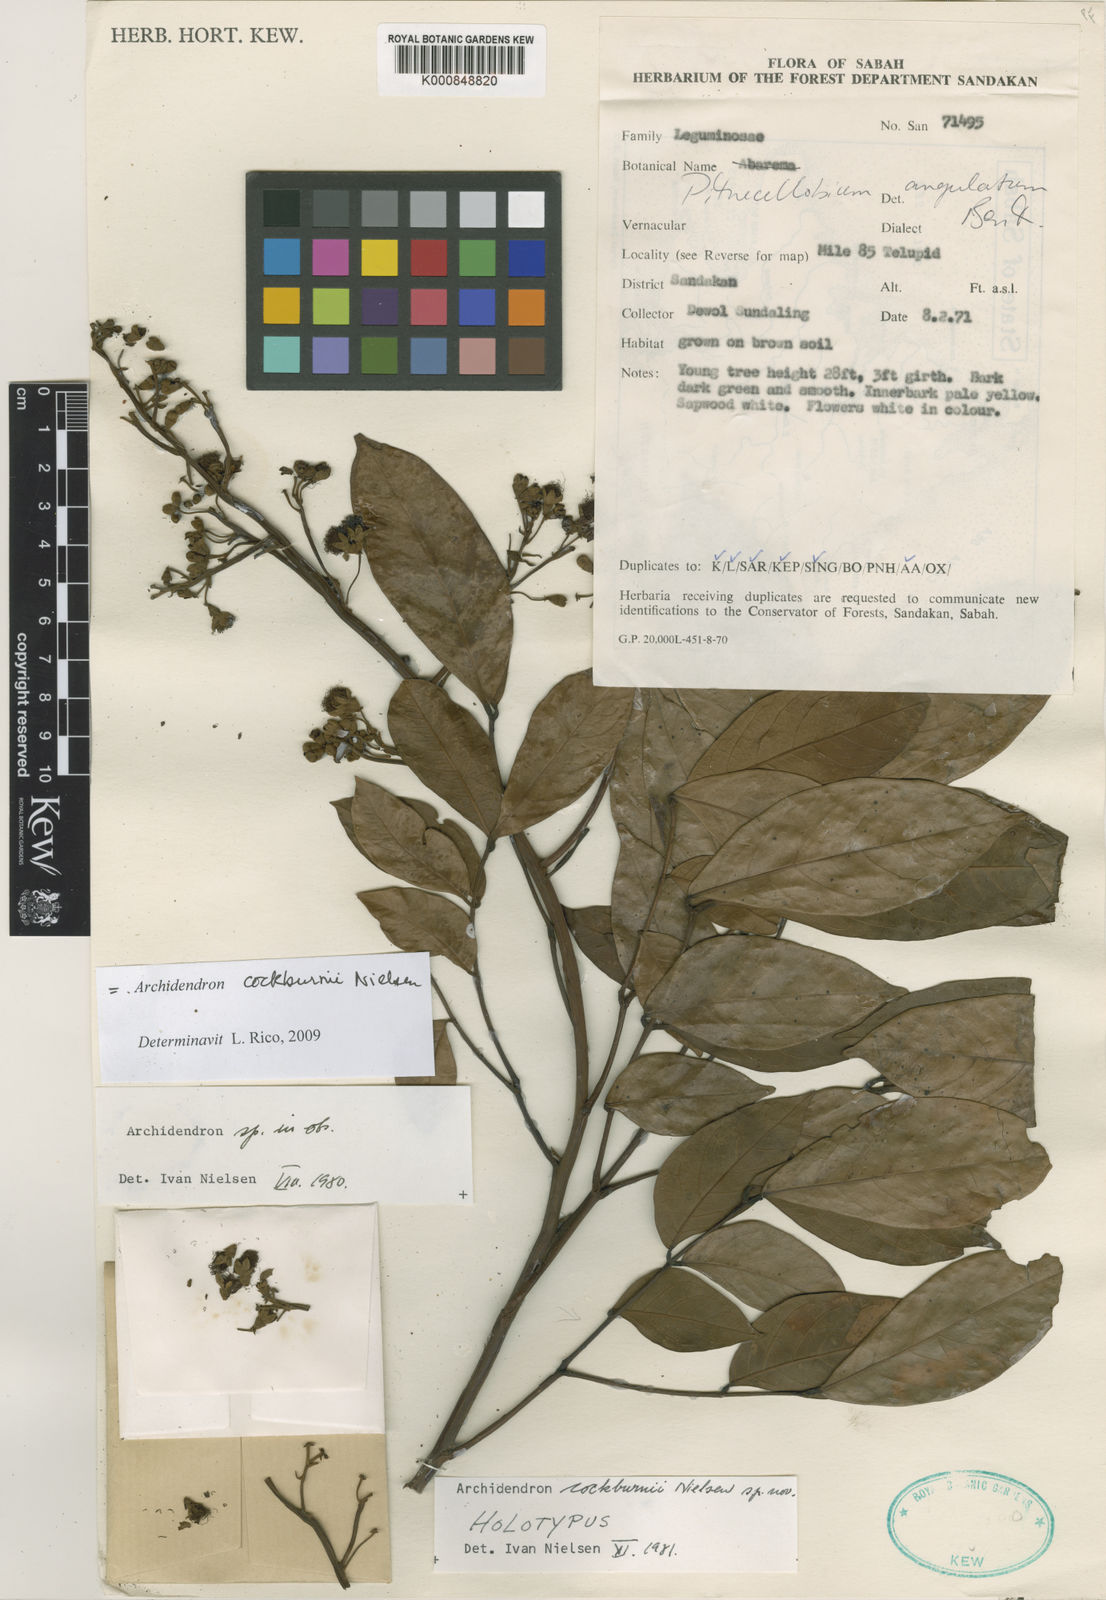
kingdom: Plantae
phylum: Tracheophyta
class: Magnoliopsida
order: Fabales
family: Fabaceae
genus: Archidendron
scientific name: Archidendron cockburnii
